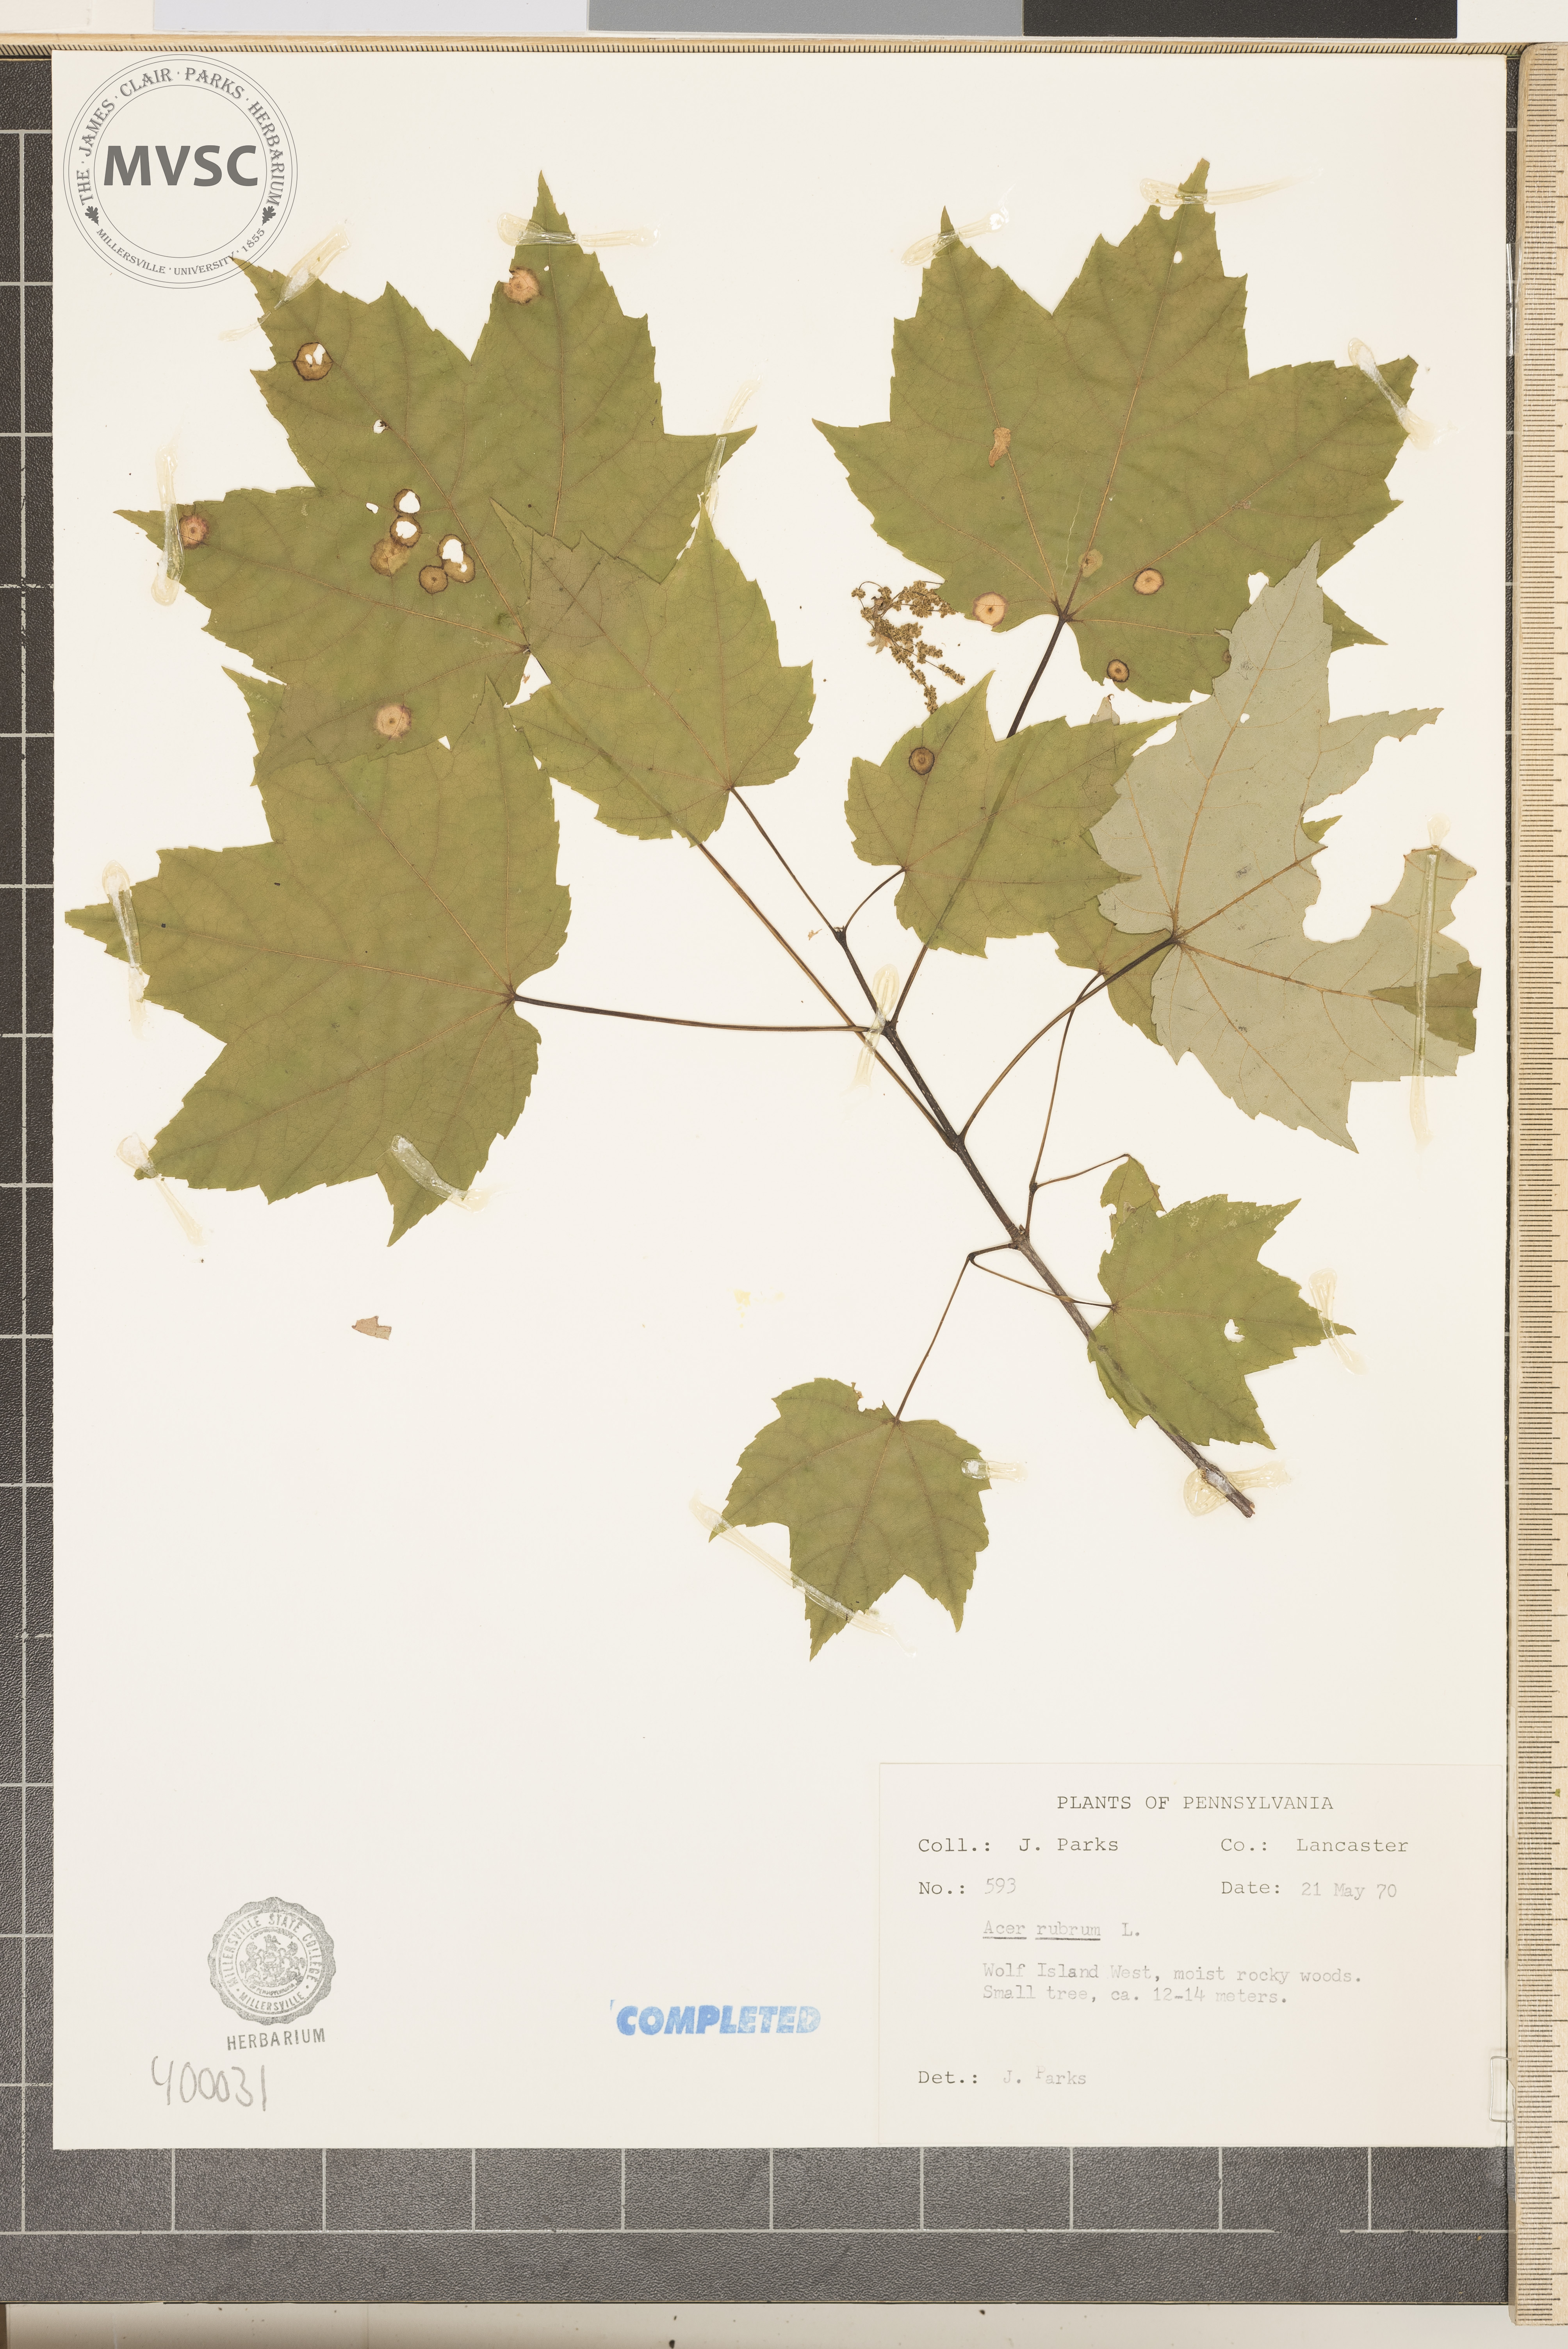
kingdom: Plantae
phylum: Tracheophyta
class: Magnoliopsida
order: Sapindales
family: Sapindaceae
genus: Acer
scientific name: Acer rubrum
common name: red maple
